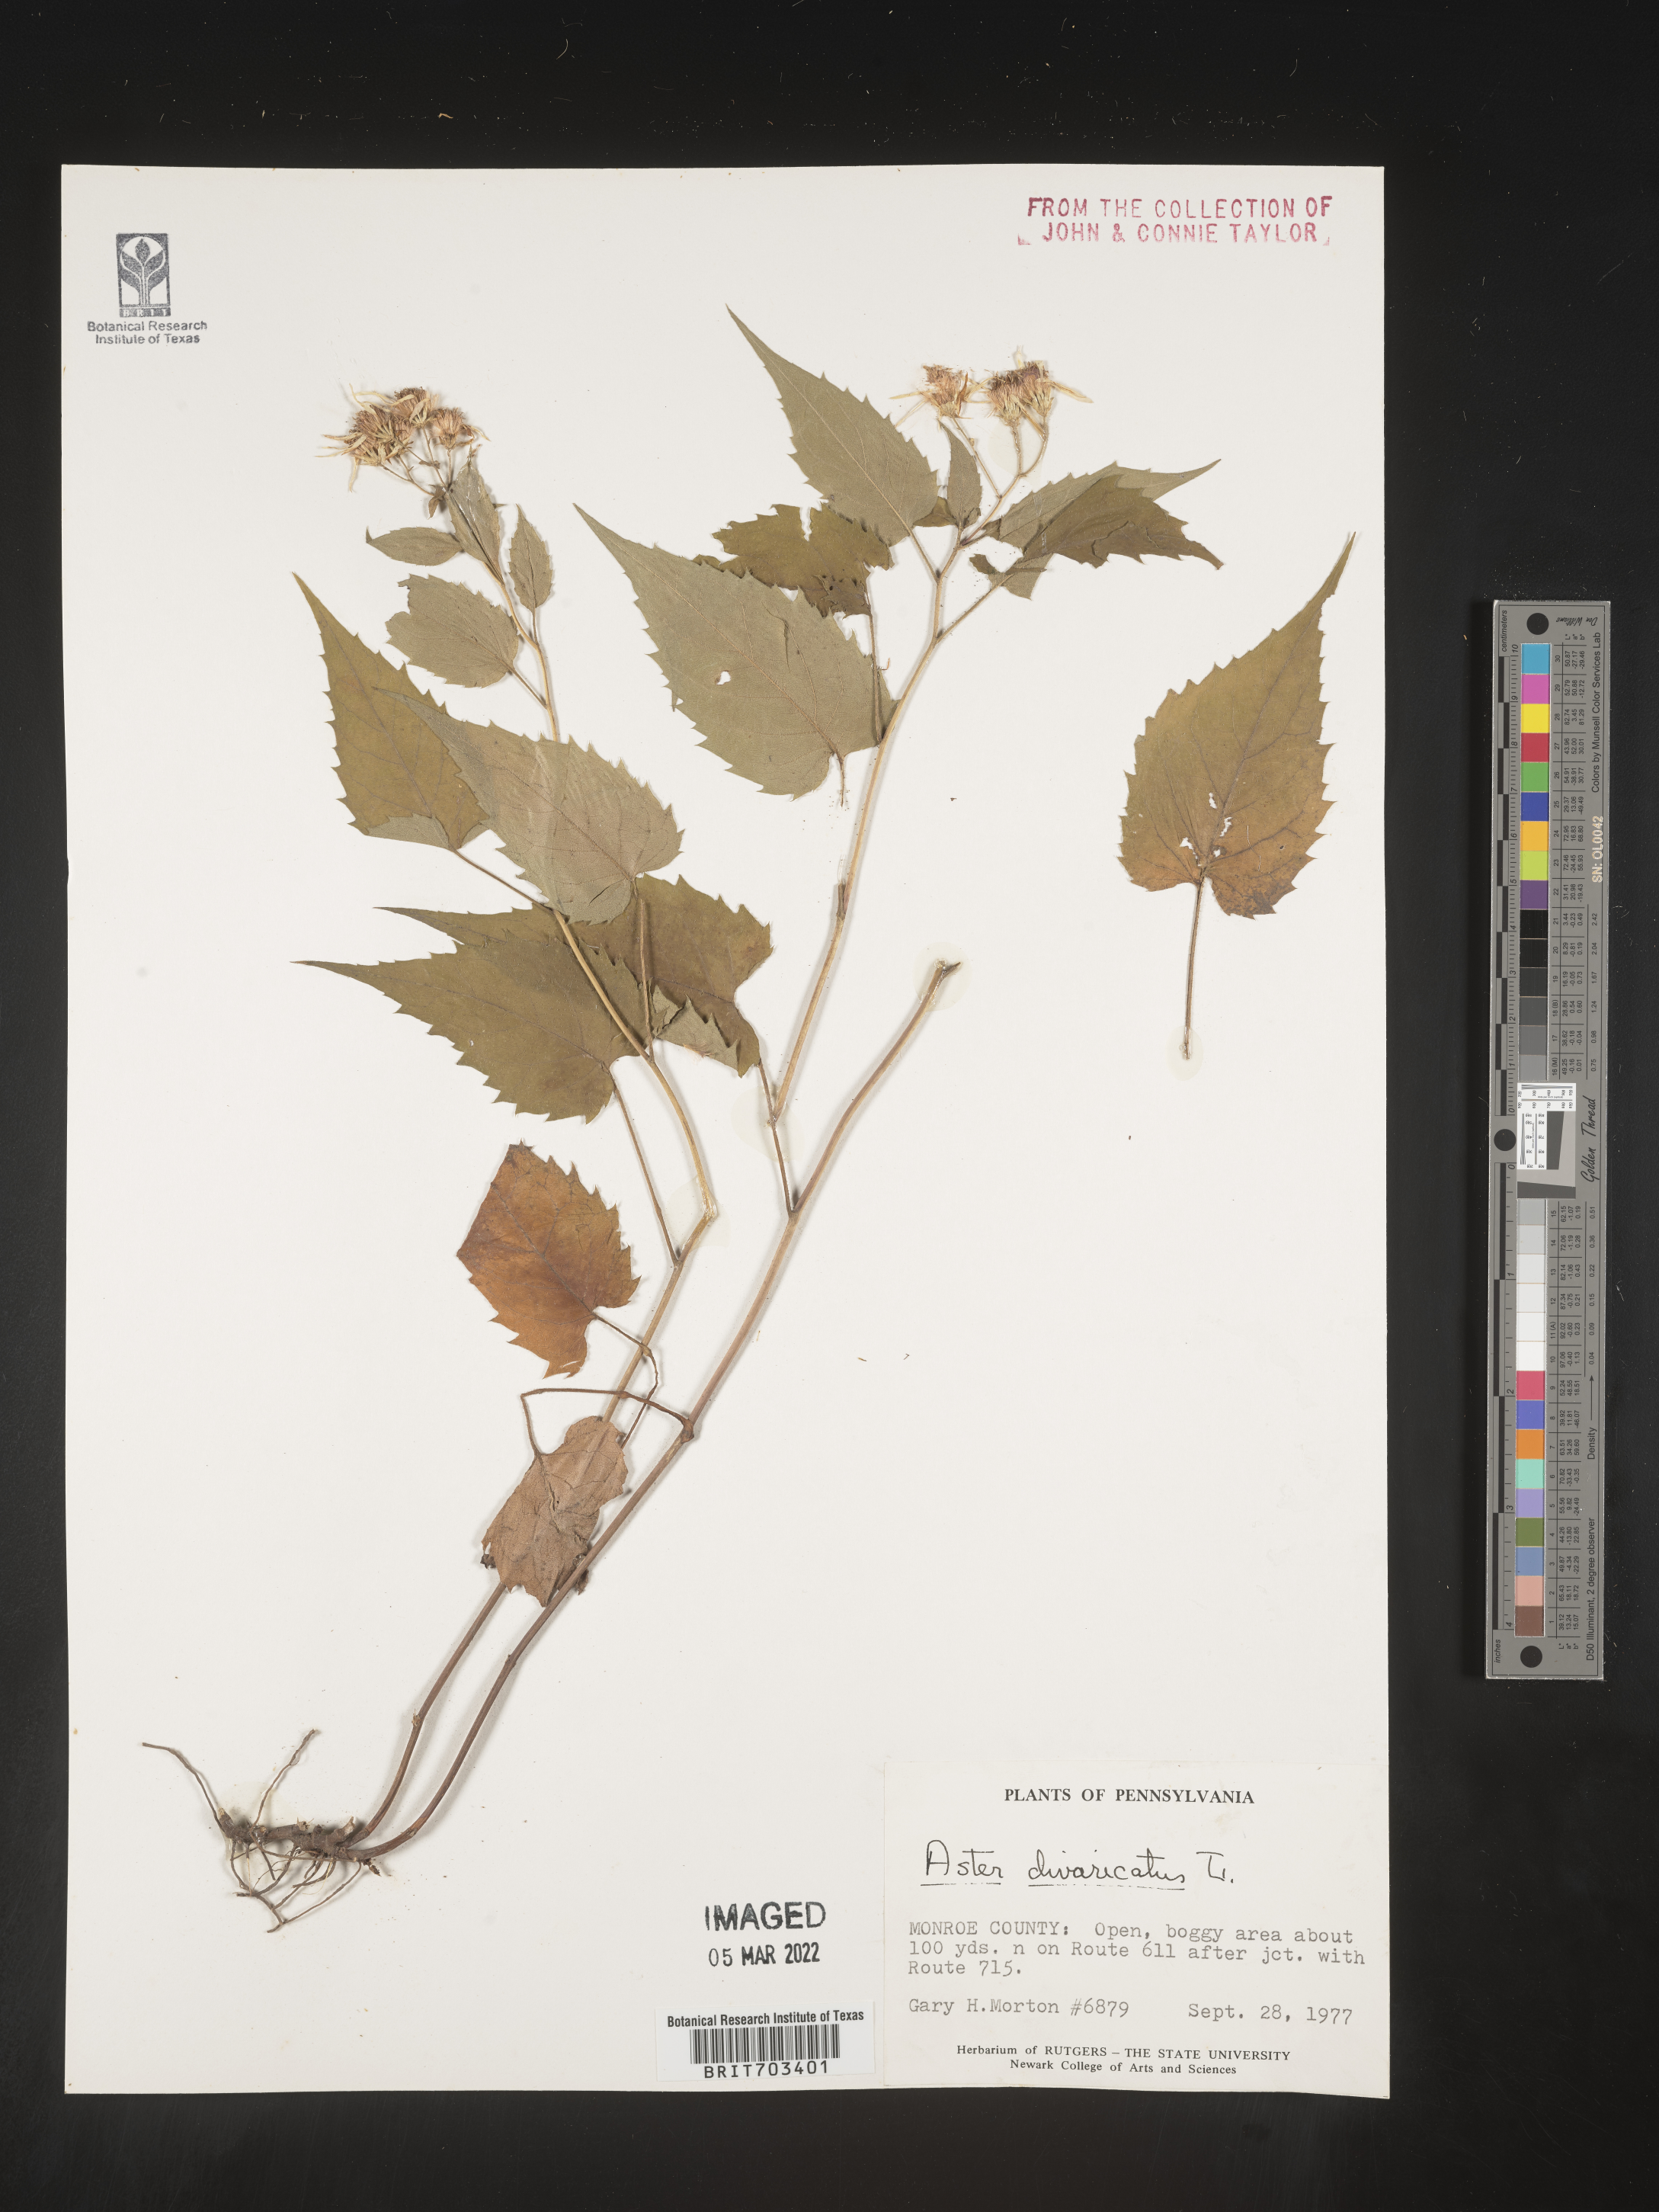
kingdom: Plantae
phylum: Tracheophyta
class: Magnoliopsida
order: Asterales
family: Asteraceae
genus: Eurybia
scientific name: Eurybia divaricata
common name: White wood aster
